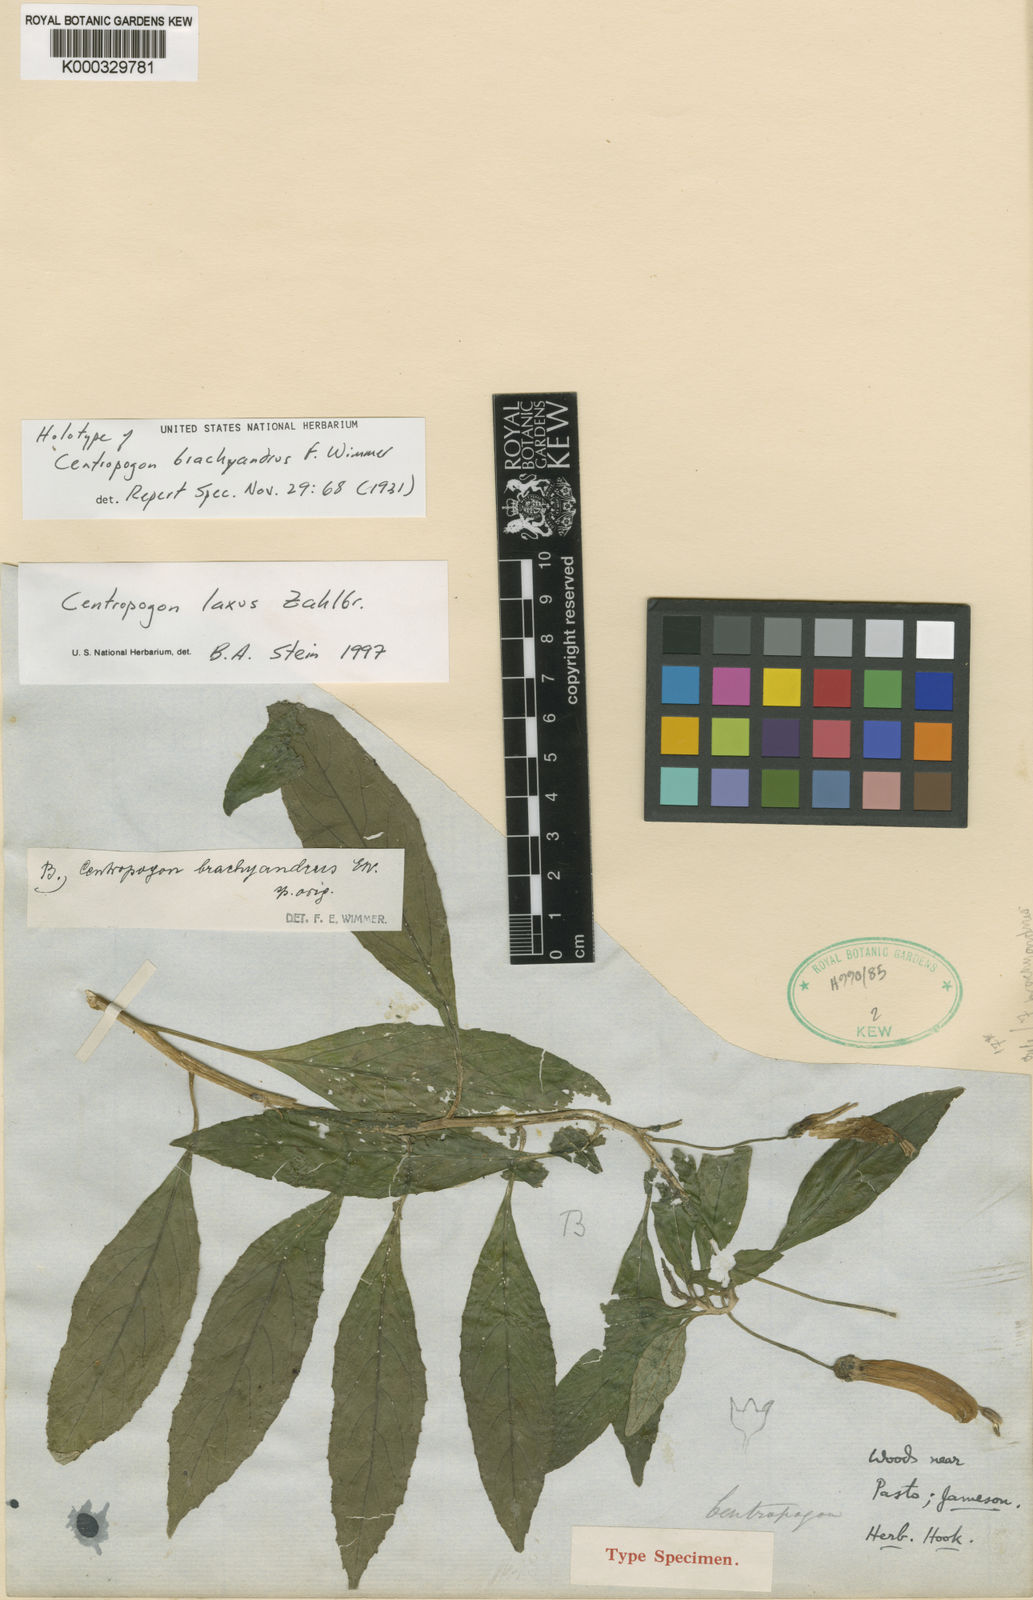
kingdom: Plantae
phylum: Tracheophyta
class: Magnoliopsida
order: Asterales
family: Campanulaceae
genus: Centropogon
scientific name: Centropogon laxus
